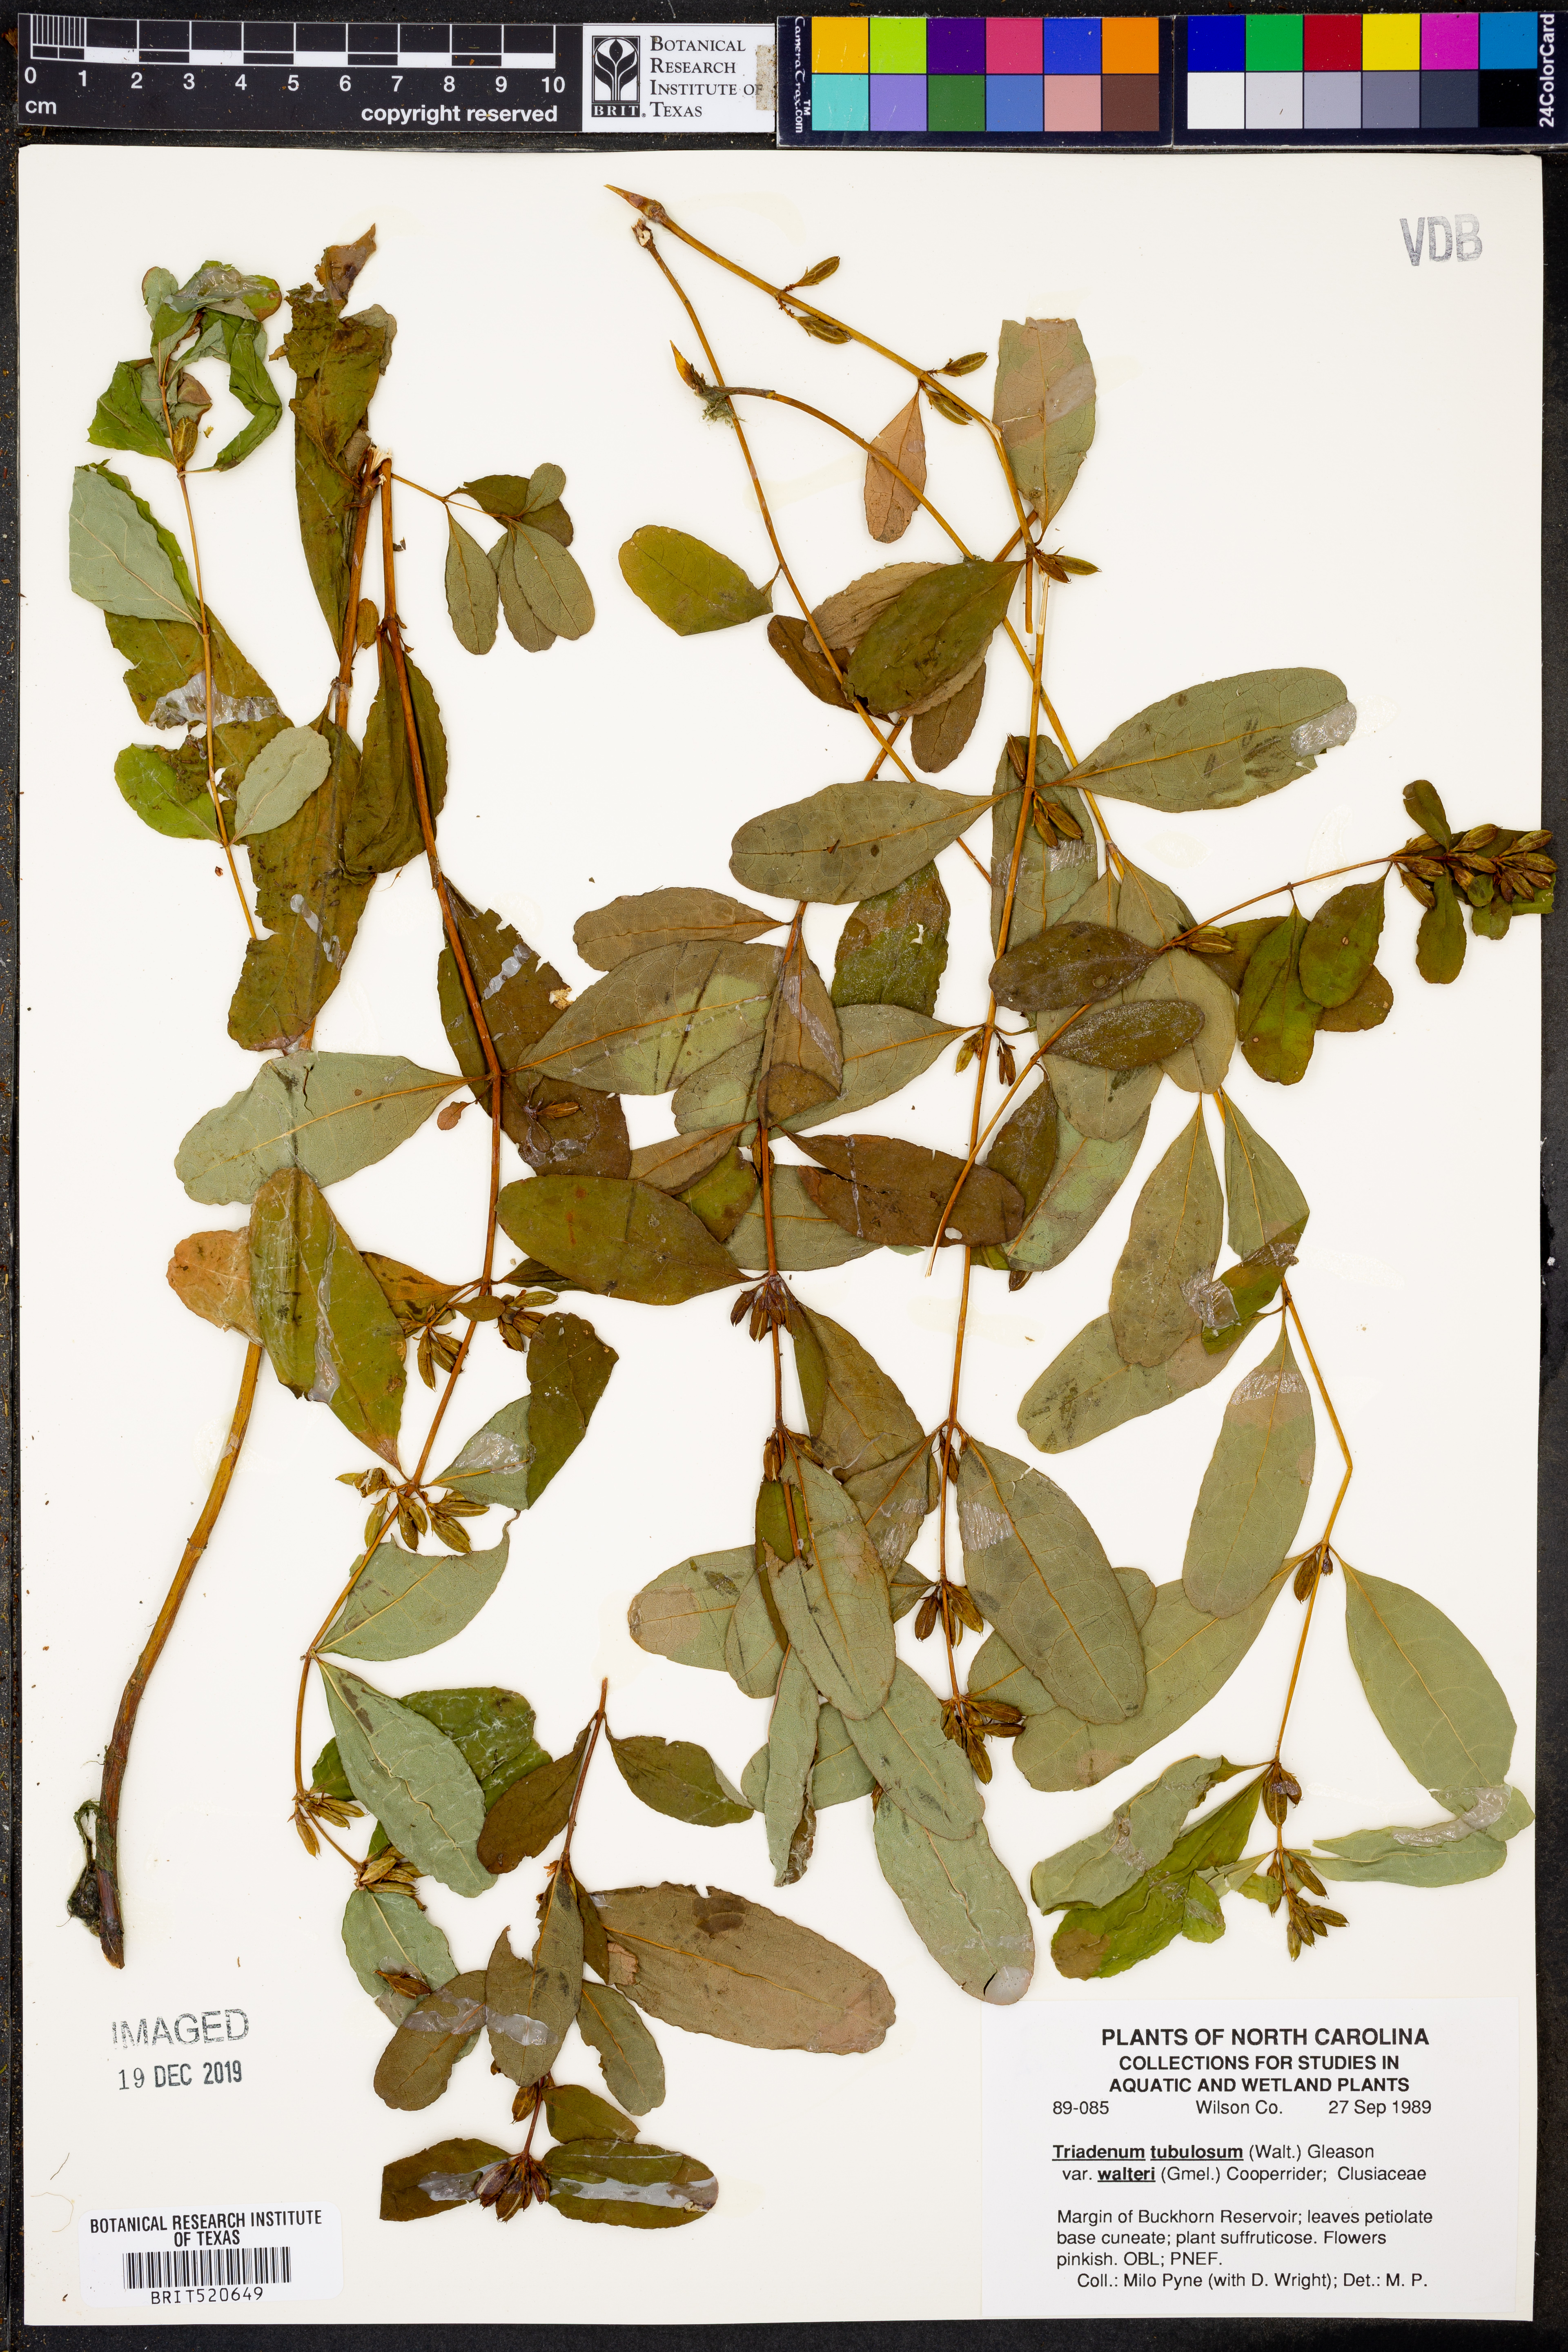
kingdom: Plantae
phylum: Tracheophyta
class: Magnoliopsida
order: Malpighiales
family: Hypericaceae
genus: Triadenum
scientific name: Triadenum walteri
